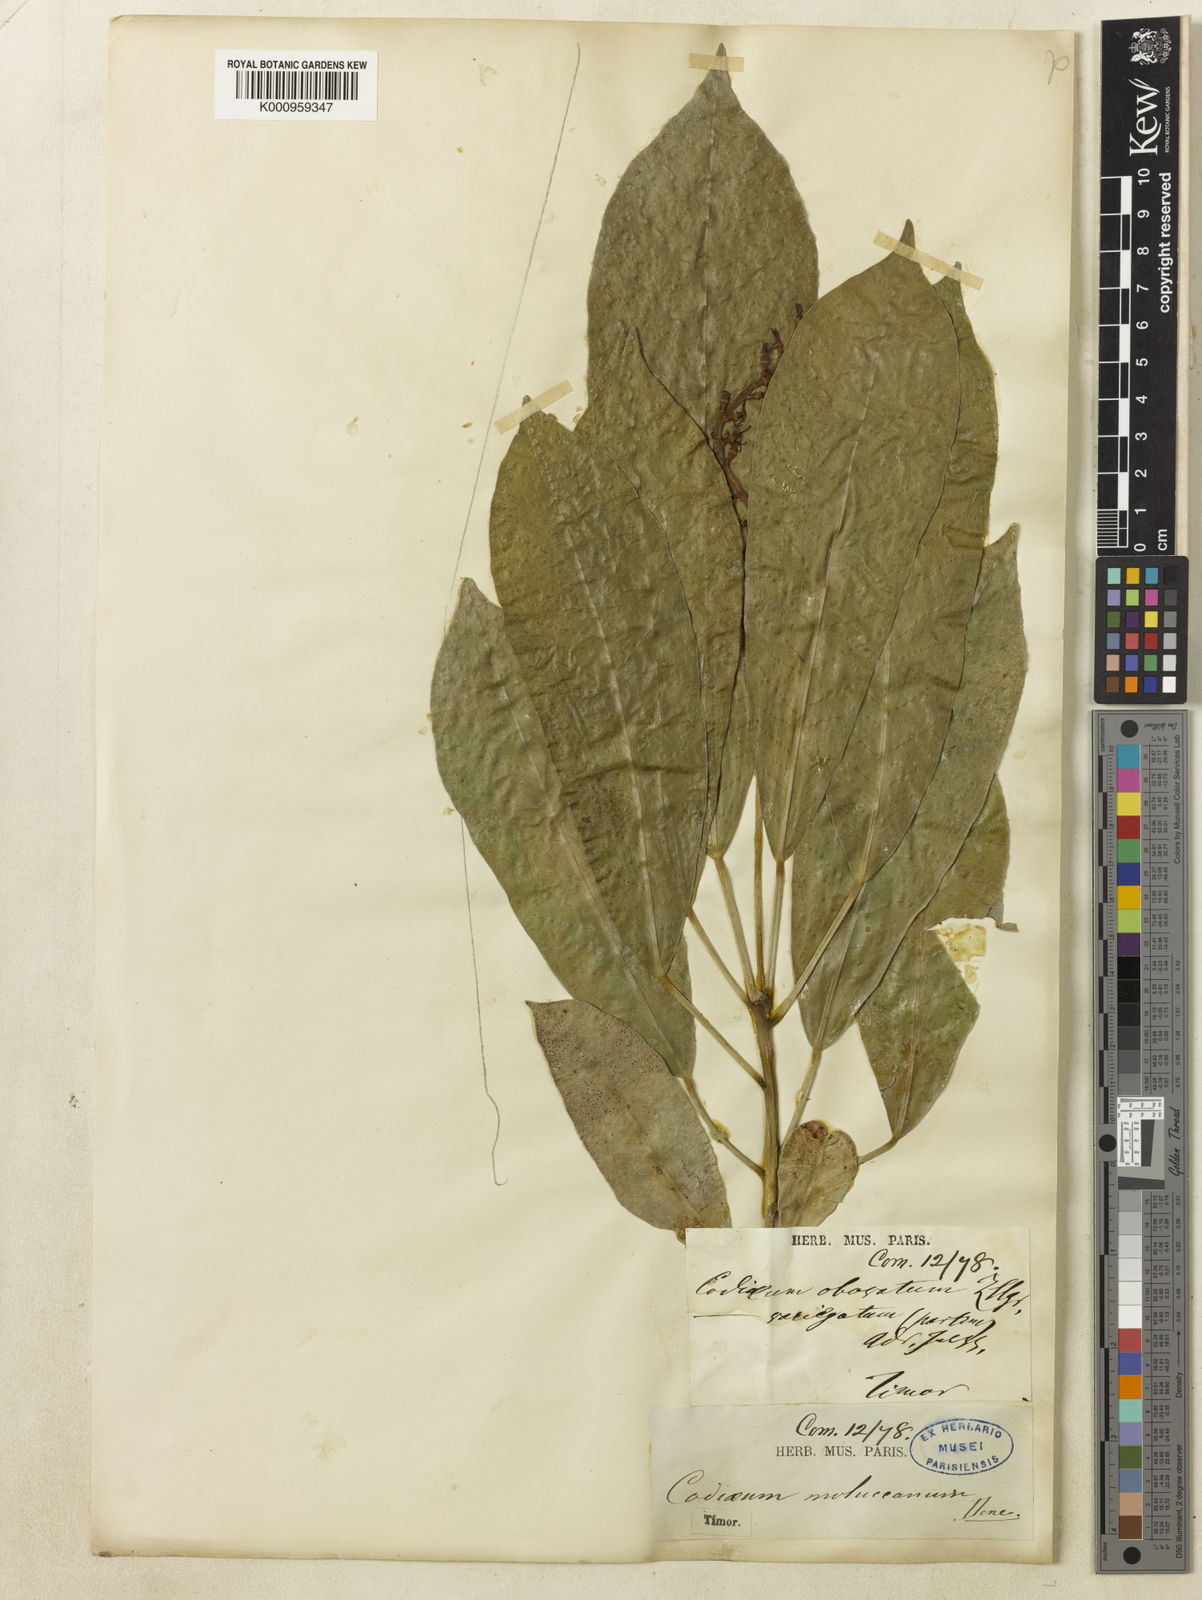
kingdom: Plantae
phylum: Tracheophyta
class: Magnoliopsida
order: Malpighiales
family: Euphorbiaceae
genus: Codiaeum
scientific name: Codiaeum variegatum
